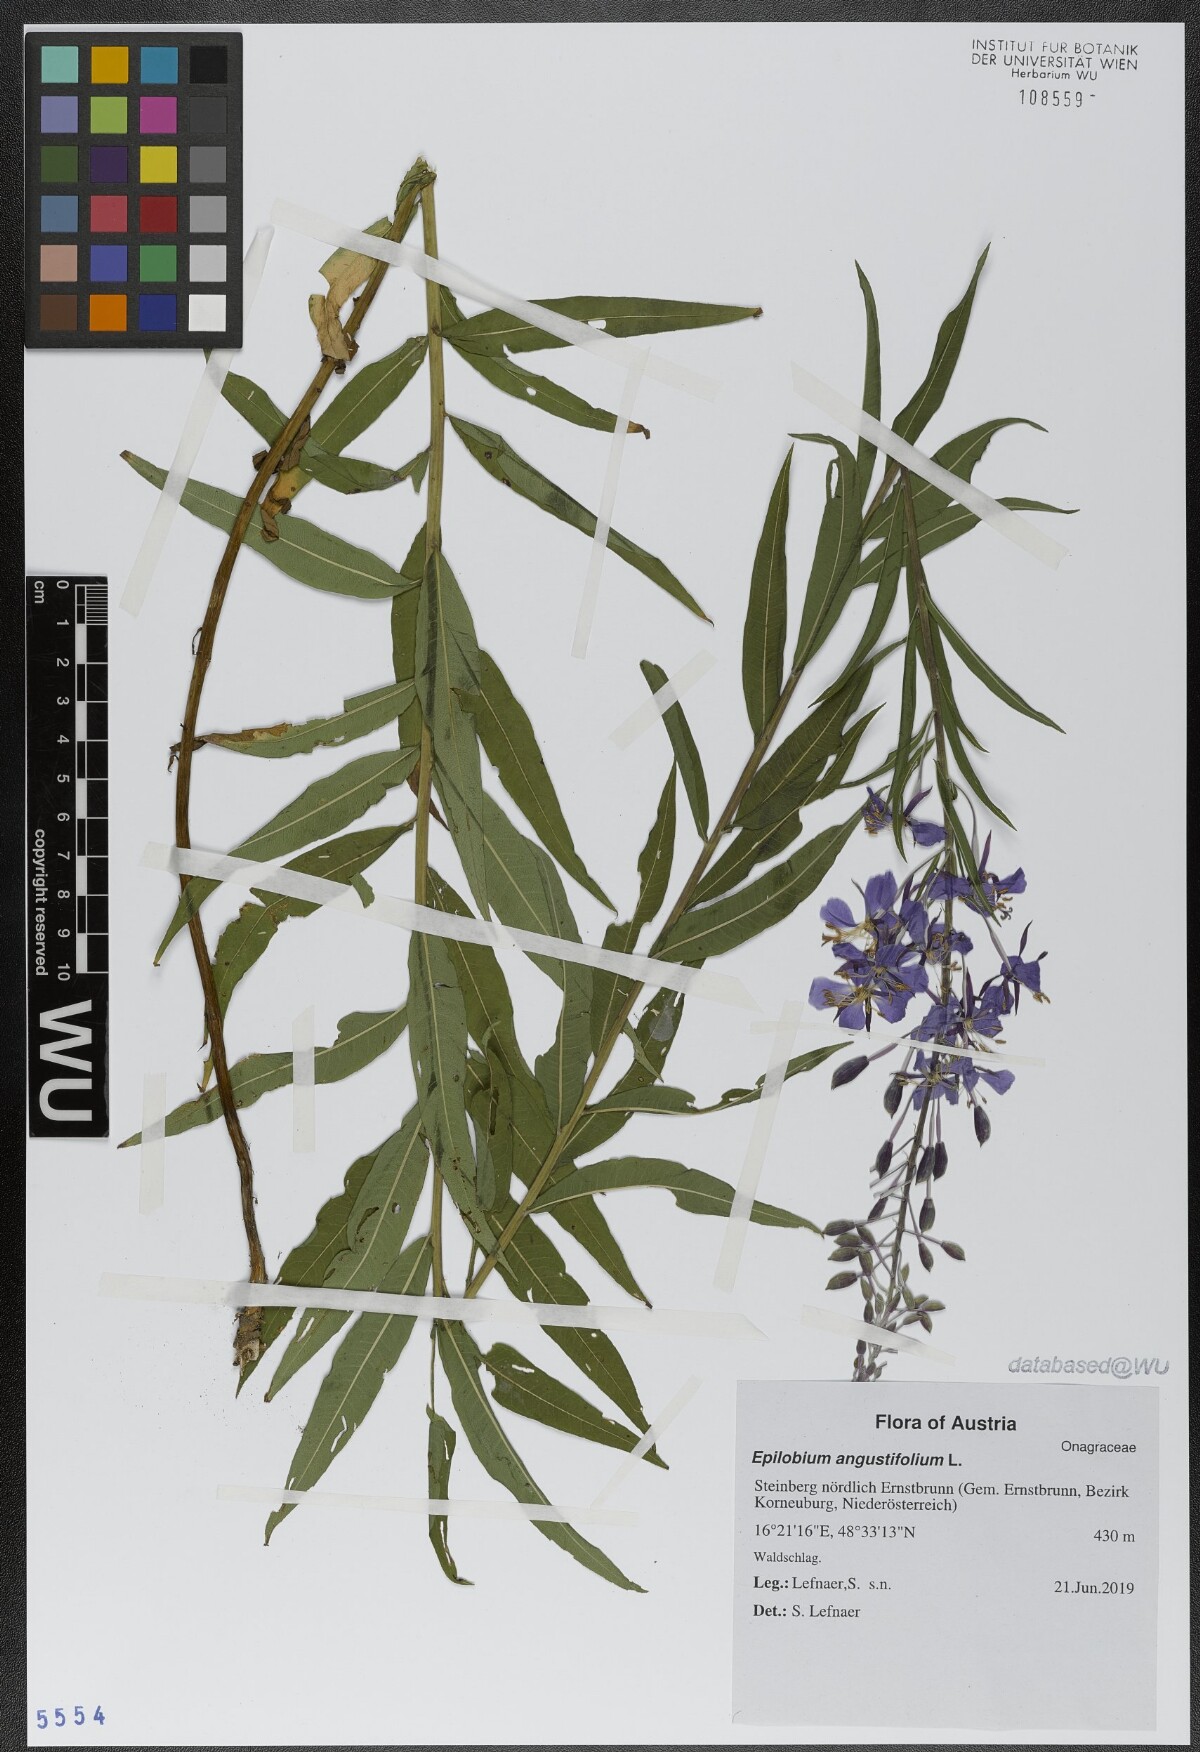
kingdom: Plantae
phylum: Tracheophyta
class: Magnoliopsida
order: Myrtales
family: Onagraceae
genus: Chamaenerion
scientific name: Chamaenerion angustifolium
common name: Fireweed
